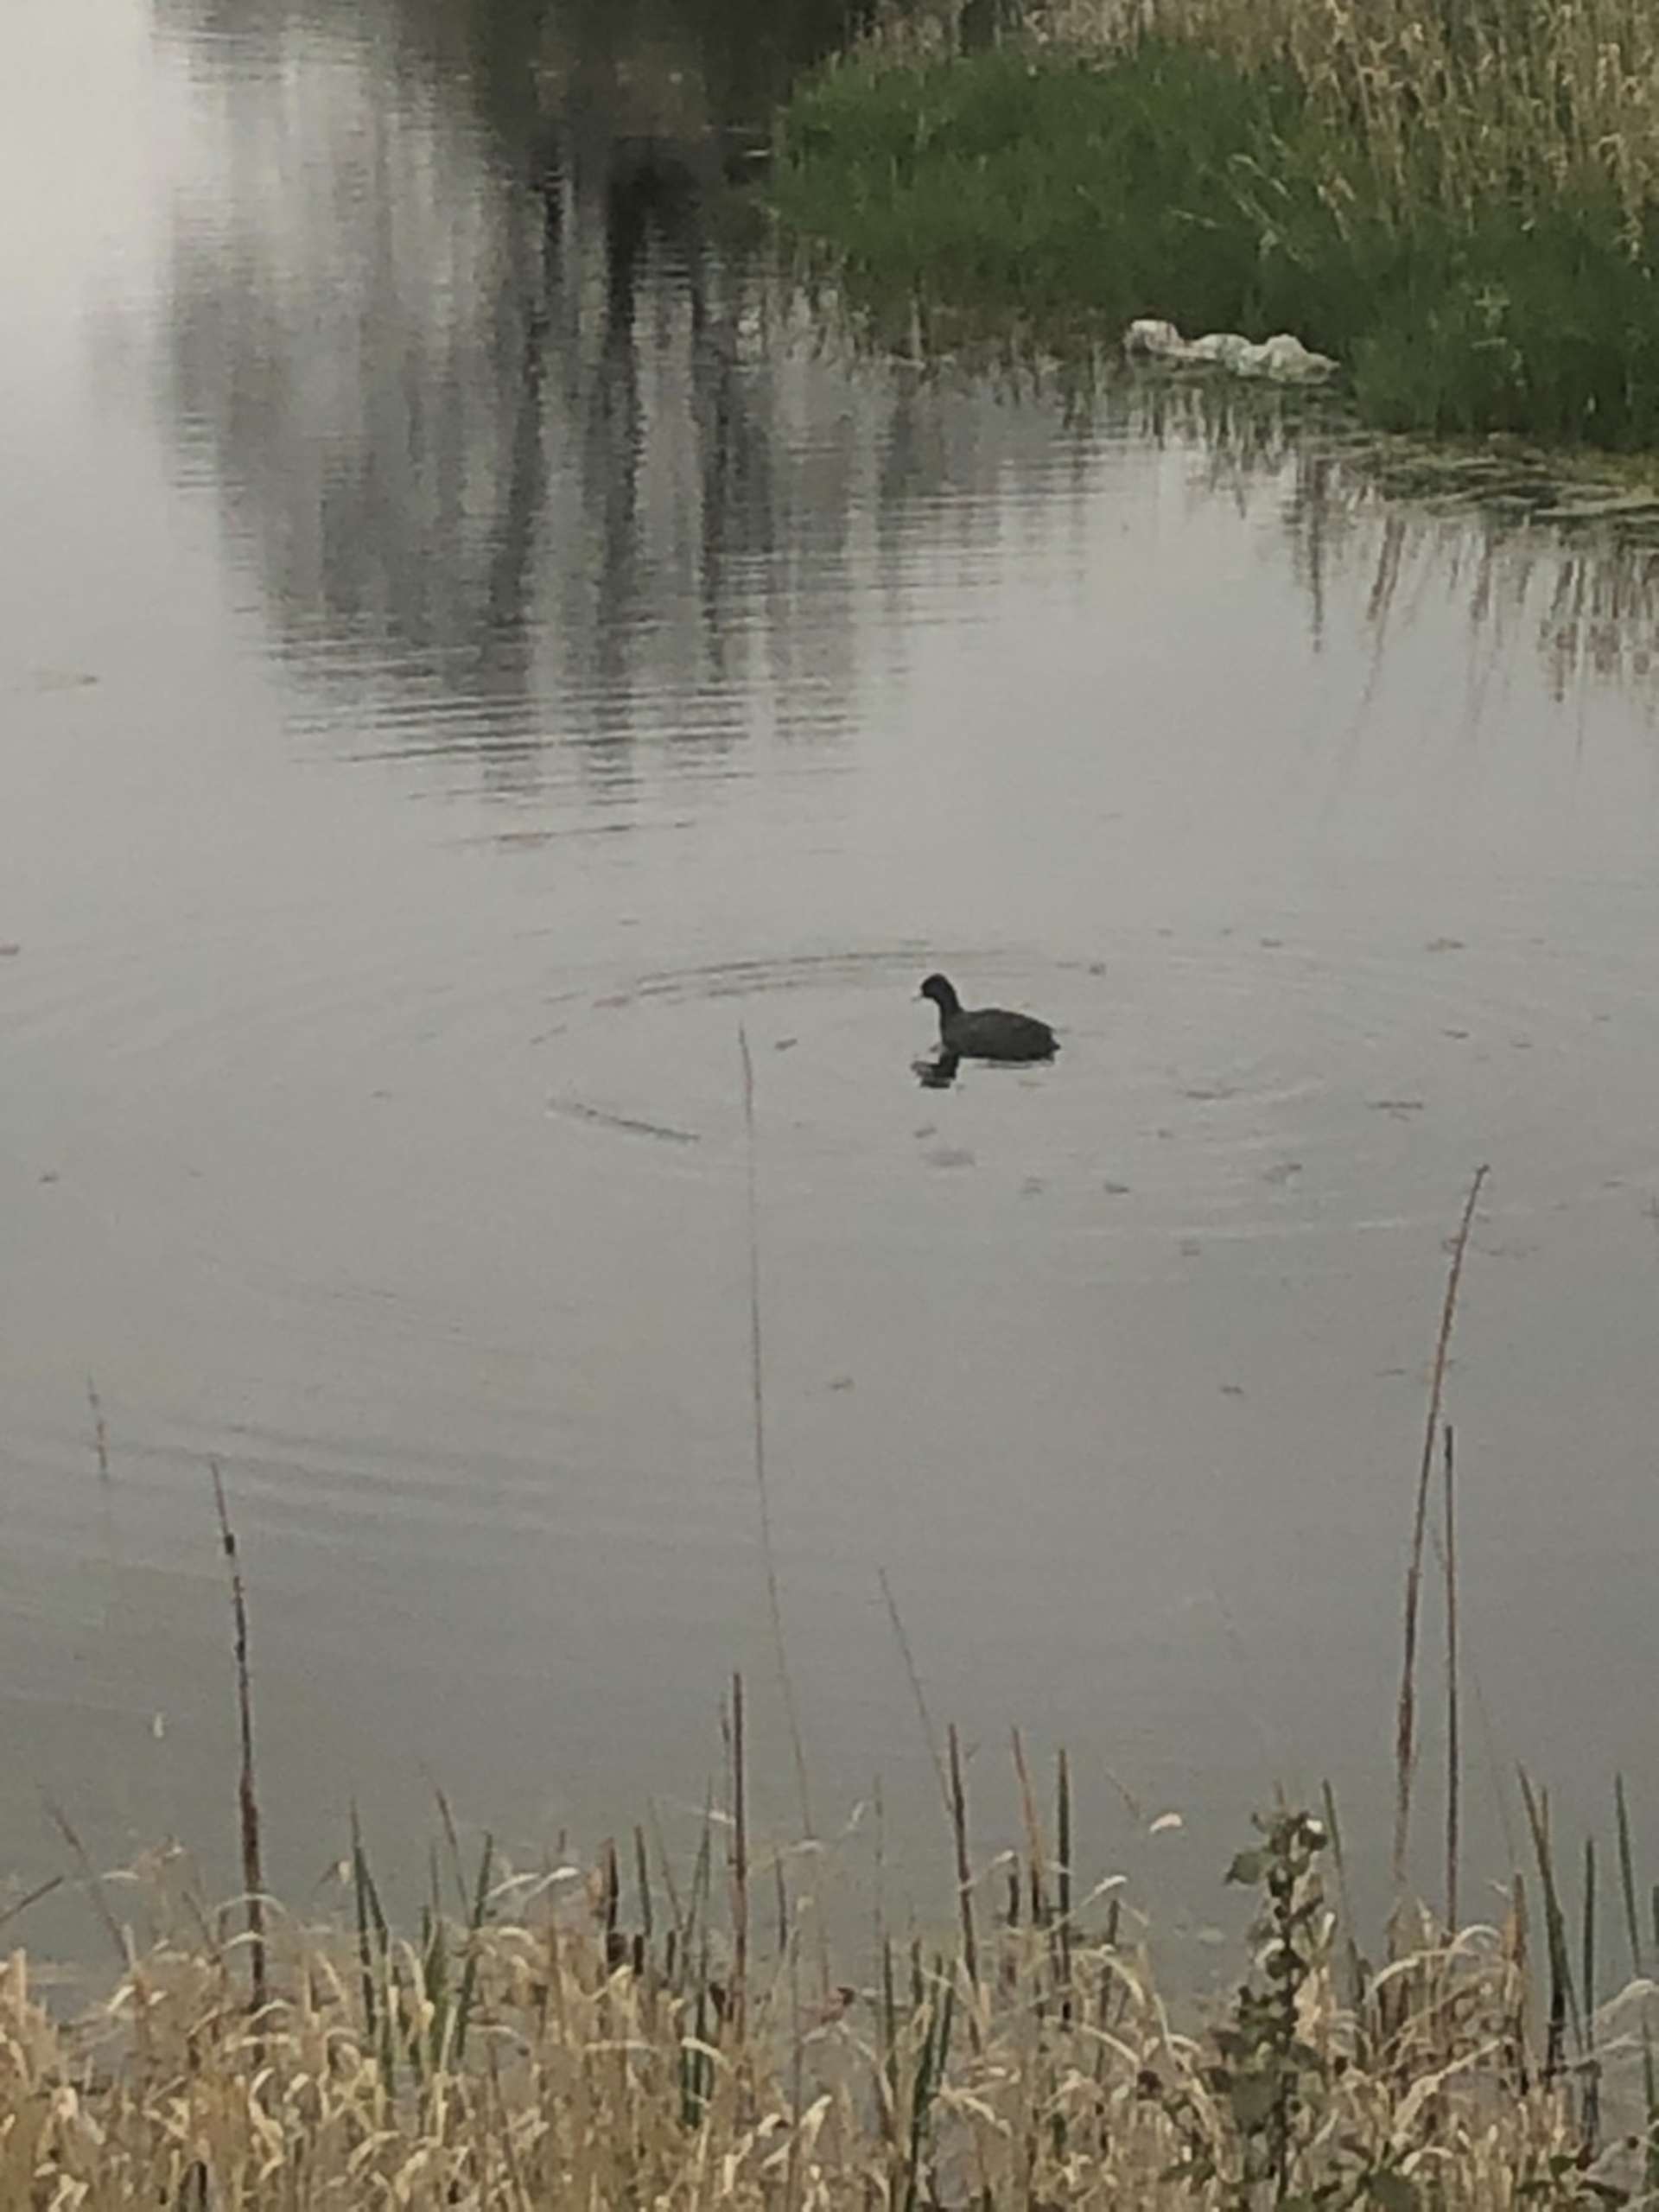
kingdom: Animalia
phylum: Chordata
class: Aves
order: Gruiformes
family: Rallidae
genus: Fulica
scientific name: Fulica atra
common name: Blishøne
